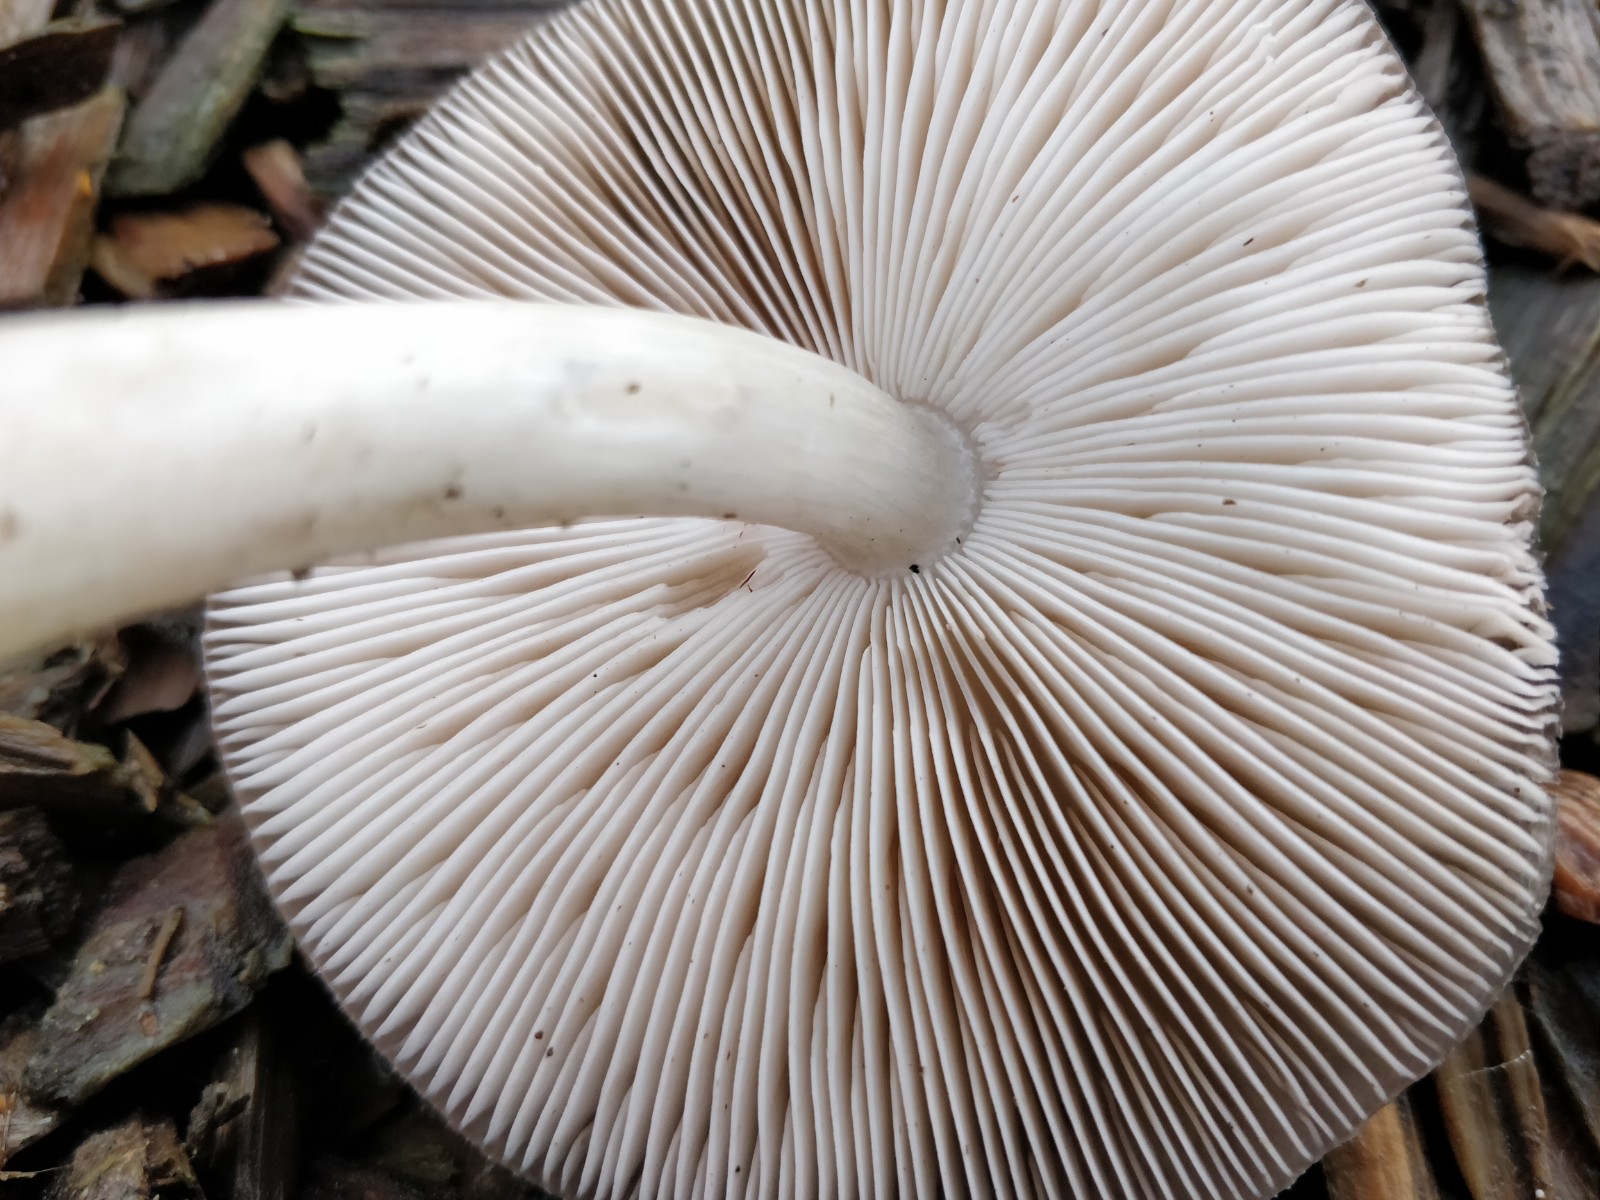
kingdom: Fungi
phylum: Basidiomycota
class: Agaricomycetes
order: Agaricales
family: Pluteaceae
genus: Pluteus
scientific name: Pluteus cervinus
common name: sodfarvet skærmhat
